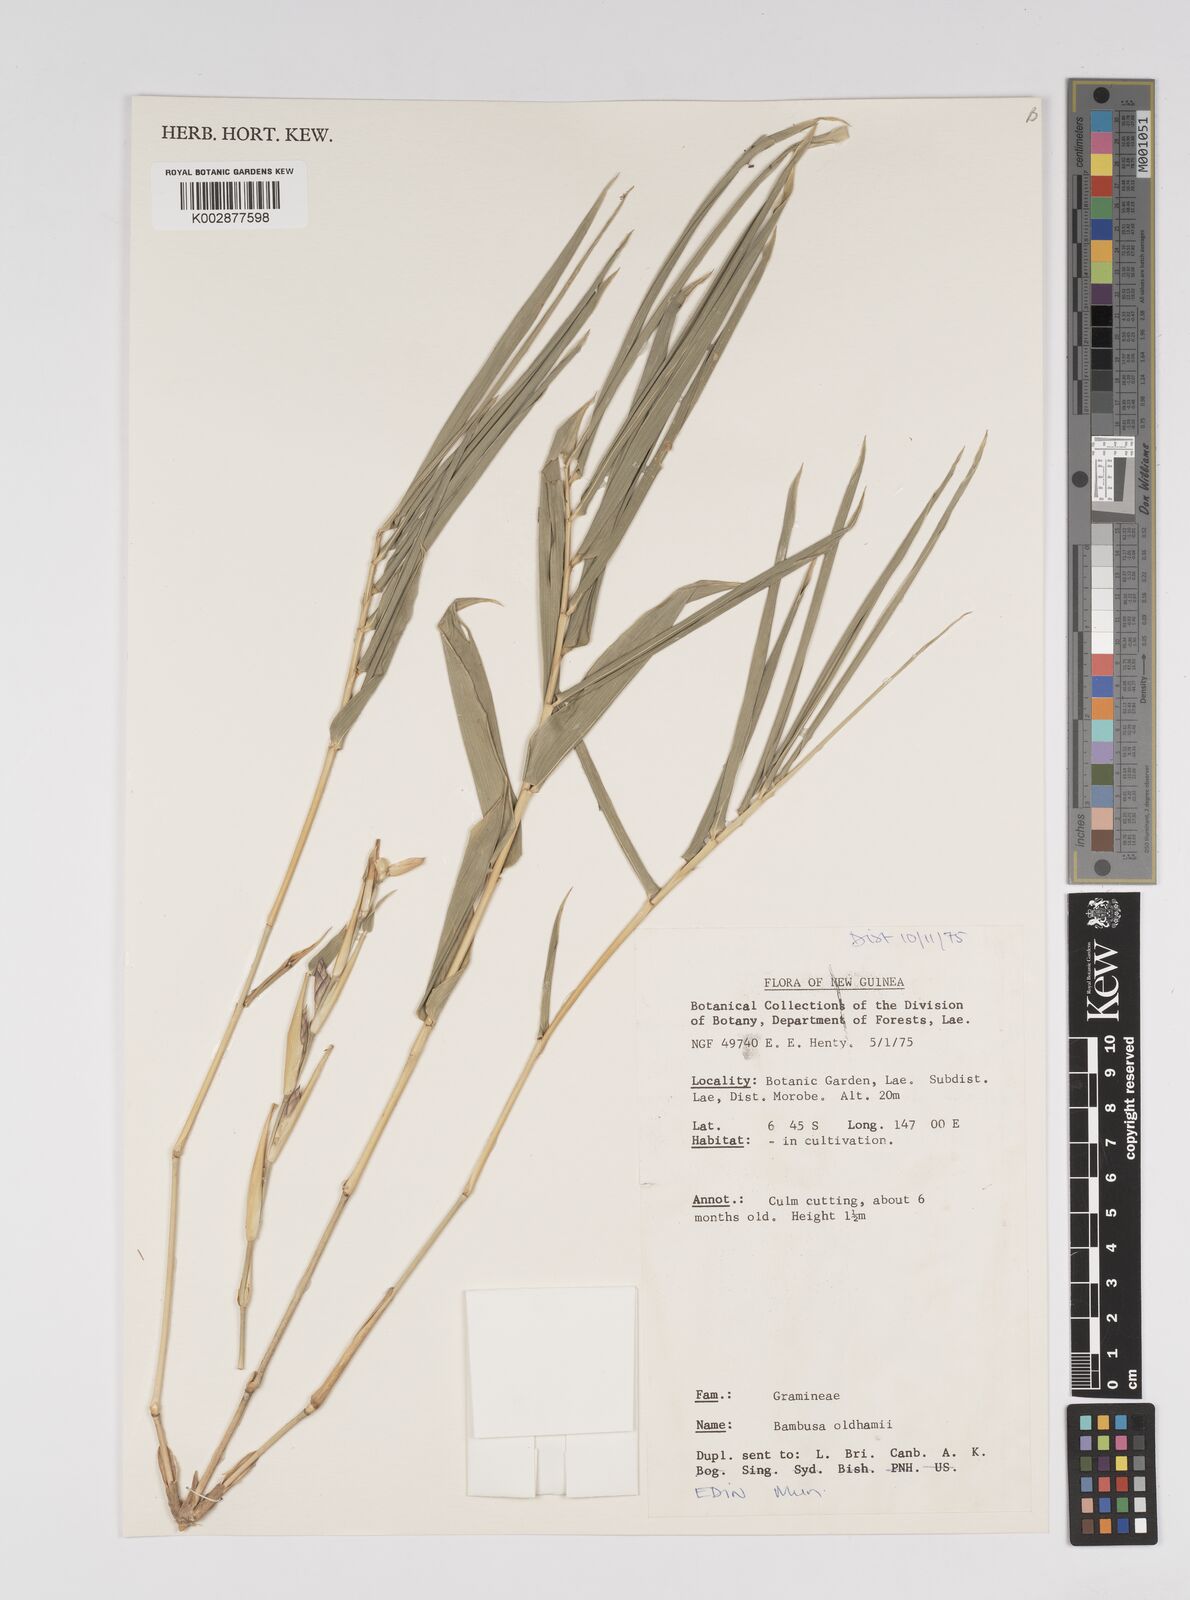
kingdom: Plantae
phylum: Tracheophyta
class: Liliopsida
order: Poales
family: Poaceae
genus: Bambusa
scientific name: Bambusa oldhamii
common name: Giant timber bamboo
